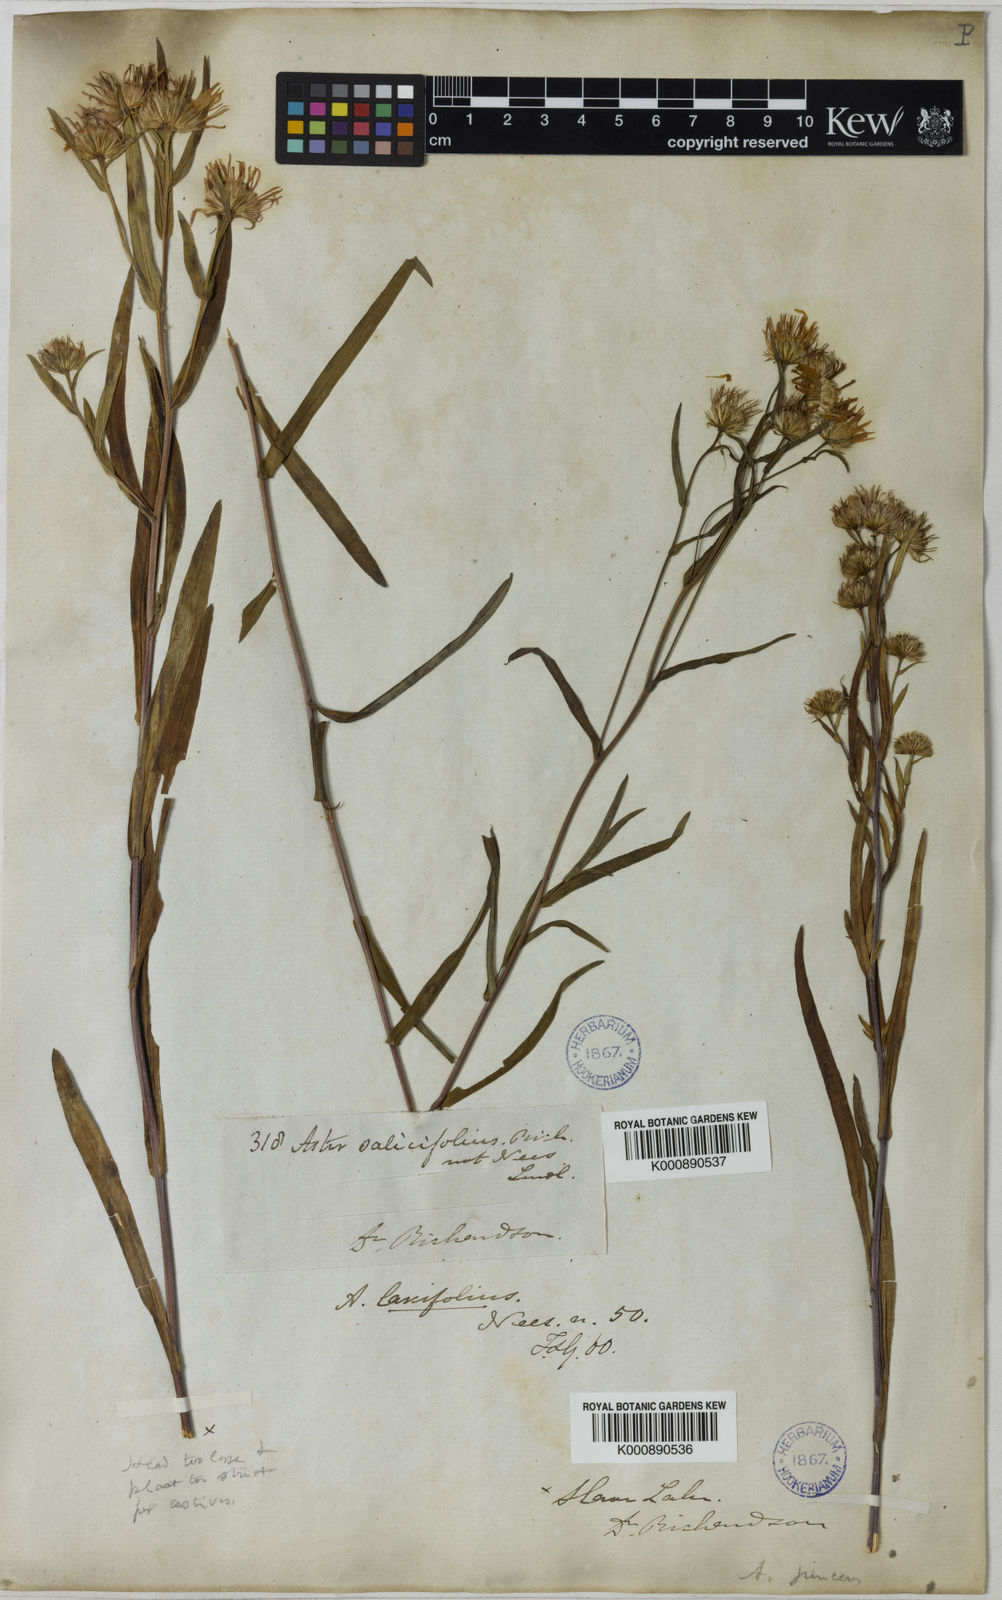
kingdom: Plantae
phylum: Tracheophyta
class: Magnoliopsida
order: Asterales
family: Asteraceae
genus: Symphyotrichum
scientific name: Symphyotrichum novi-belgii
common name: Michaelmas daisy
